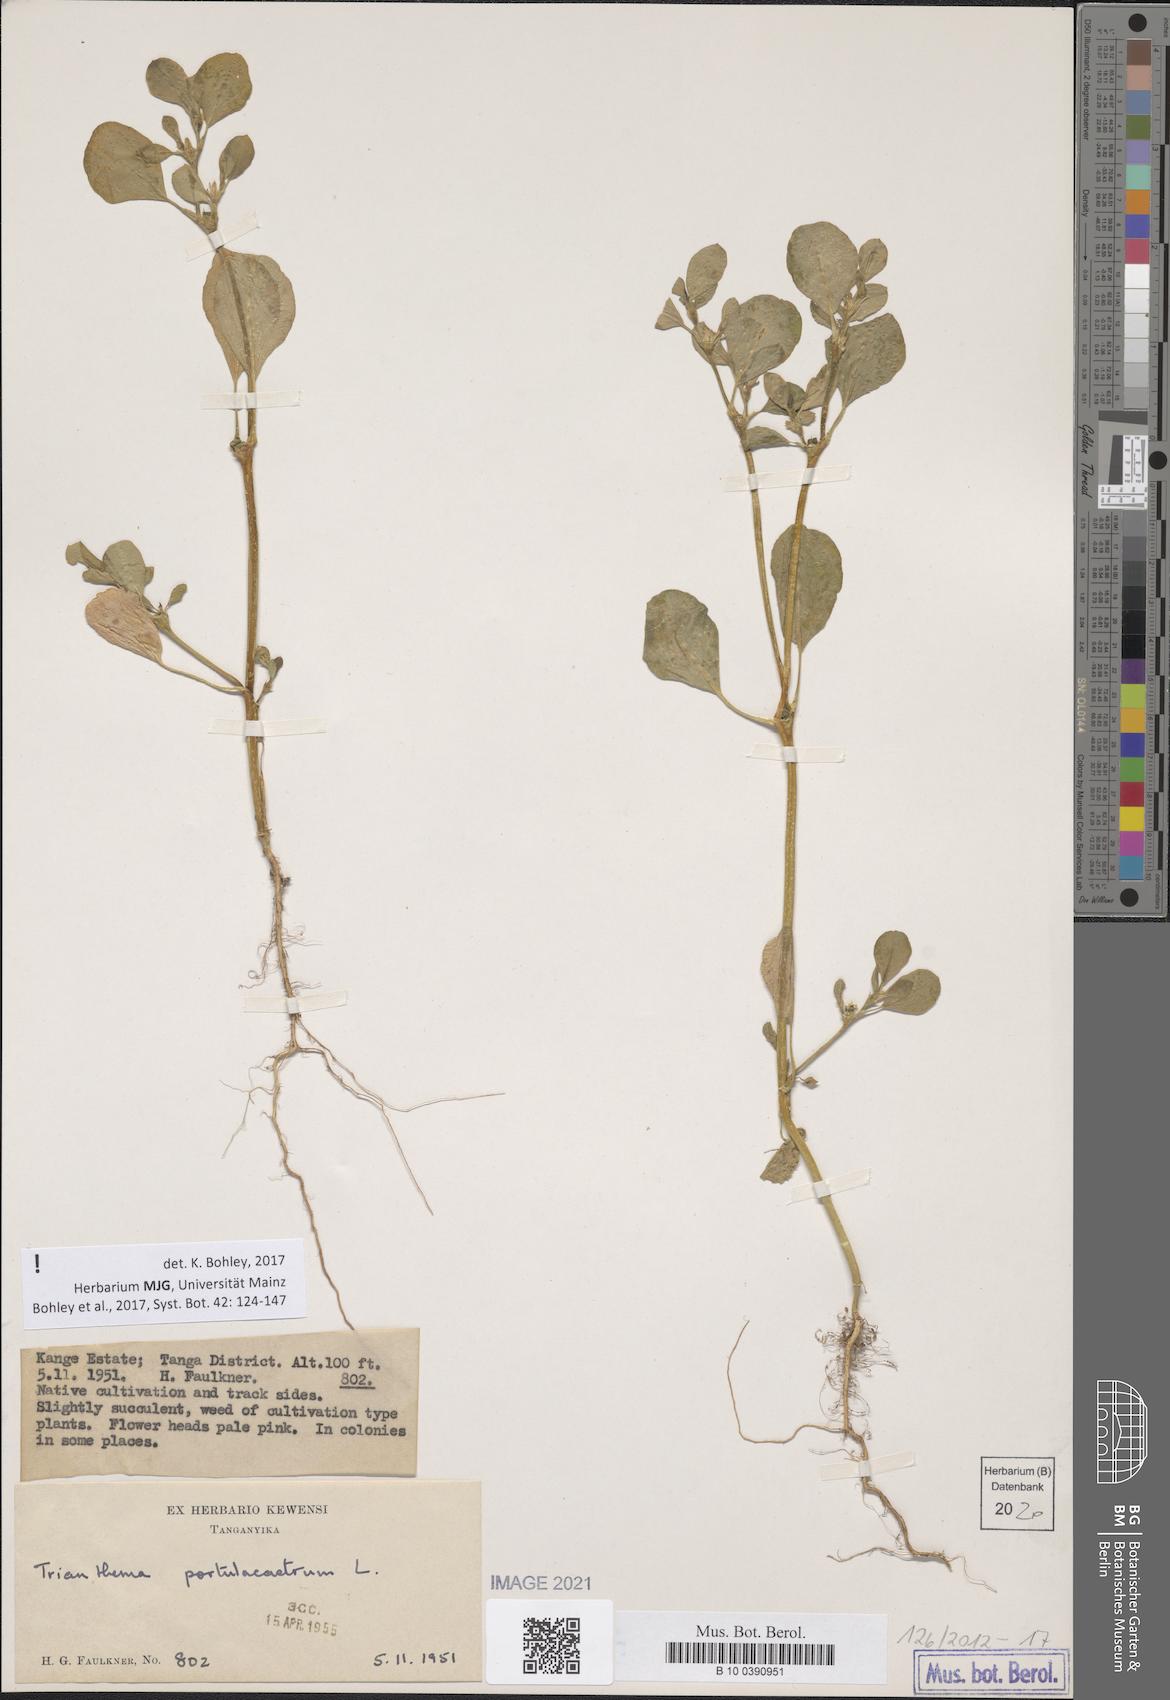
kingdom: Plantae
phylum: Tracheophyta
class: Magnoliopsida
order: Caryophyllales
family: Aizoaceae
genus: Trianthema
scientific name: Trianthema portulacastrum
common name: Desert horsepurslane
